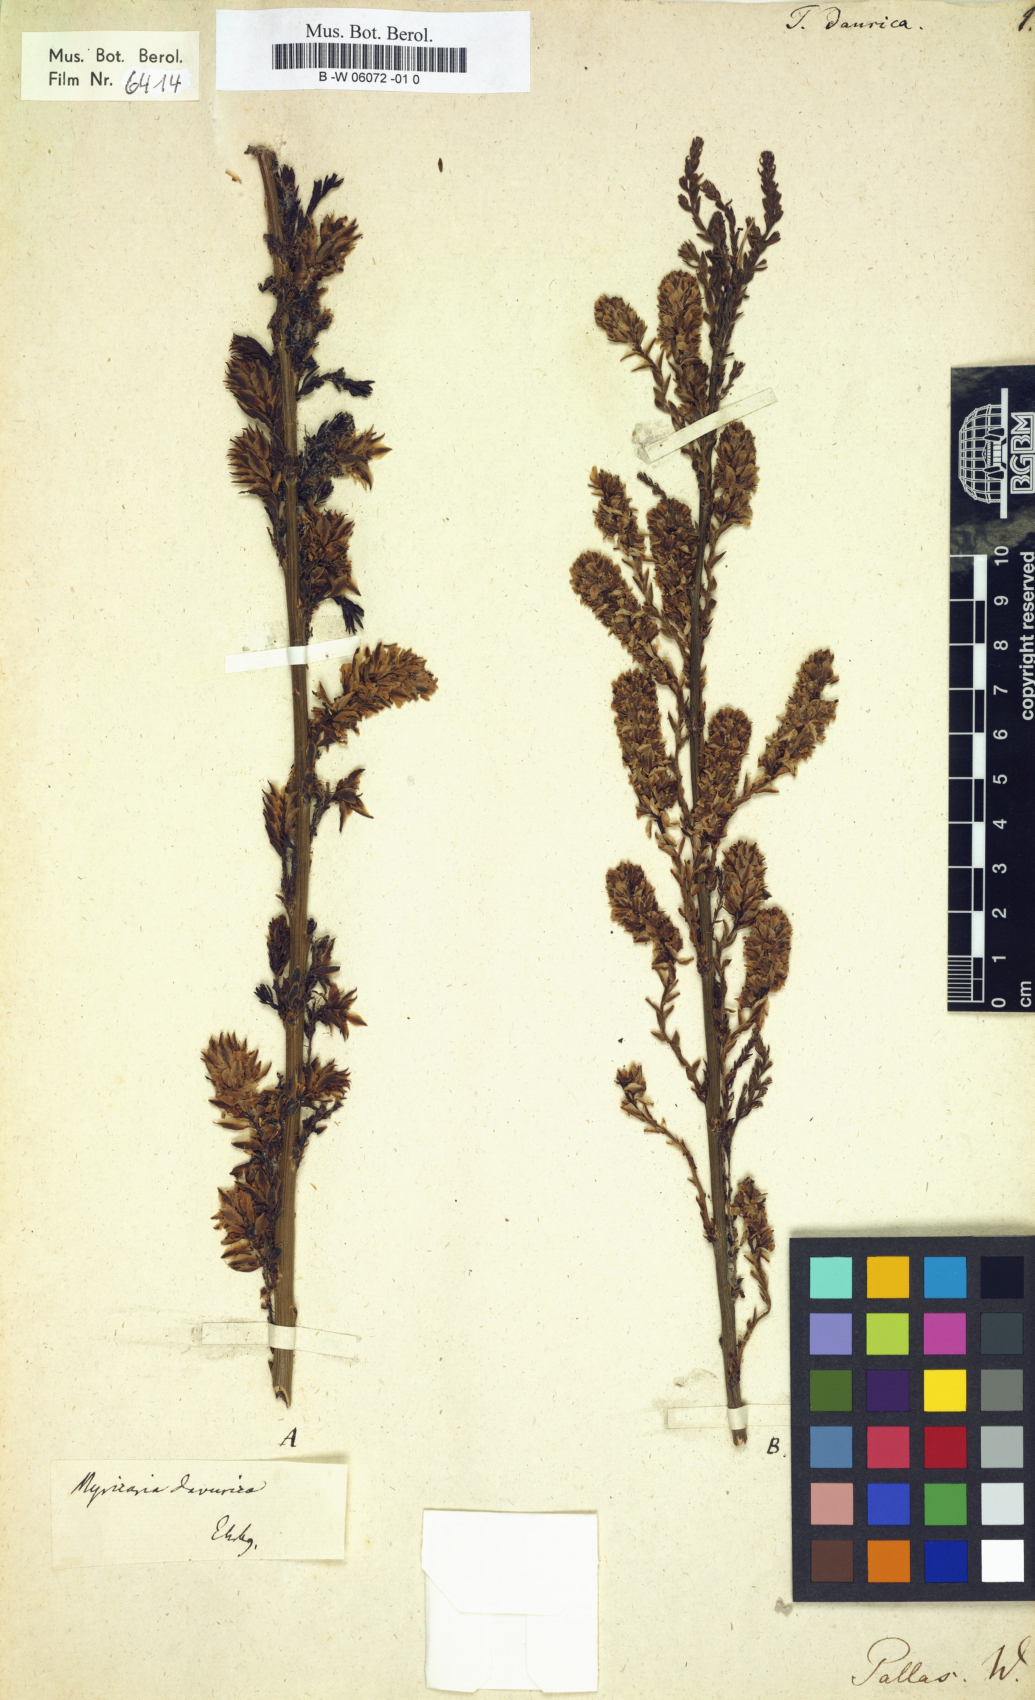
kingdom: Plantae
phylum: Tracheophyta
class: Magnoliopsida
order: Caryophyllales
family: Tamaricaceae
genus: Myricaria
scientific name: Myricaria davurica
